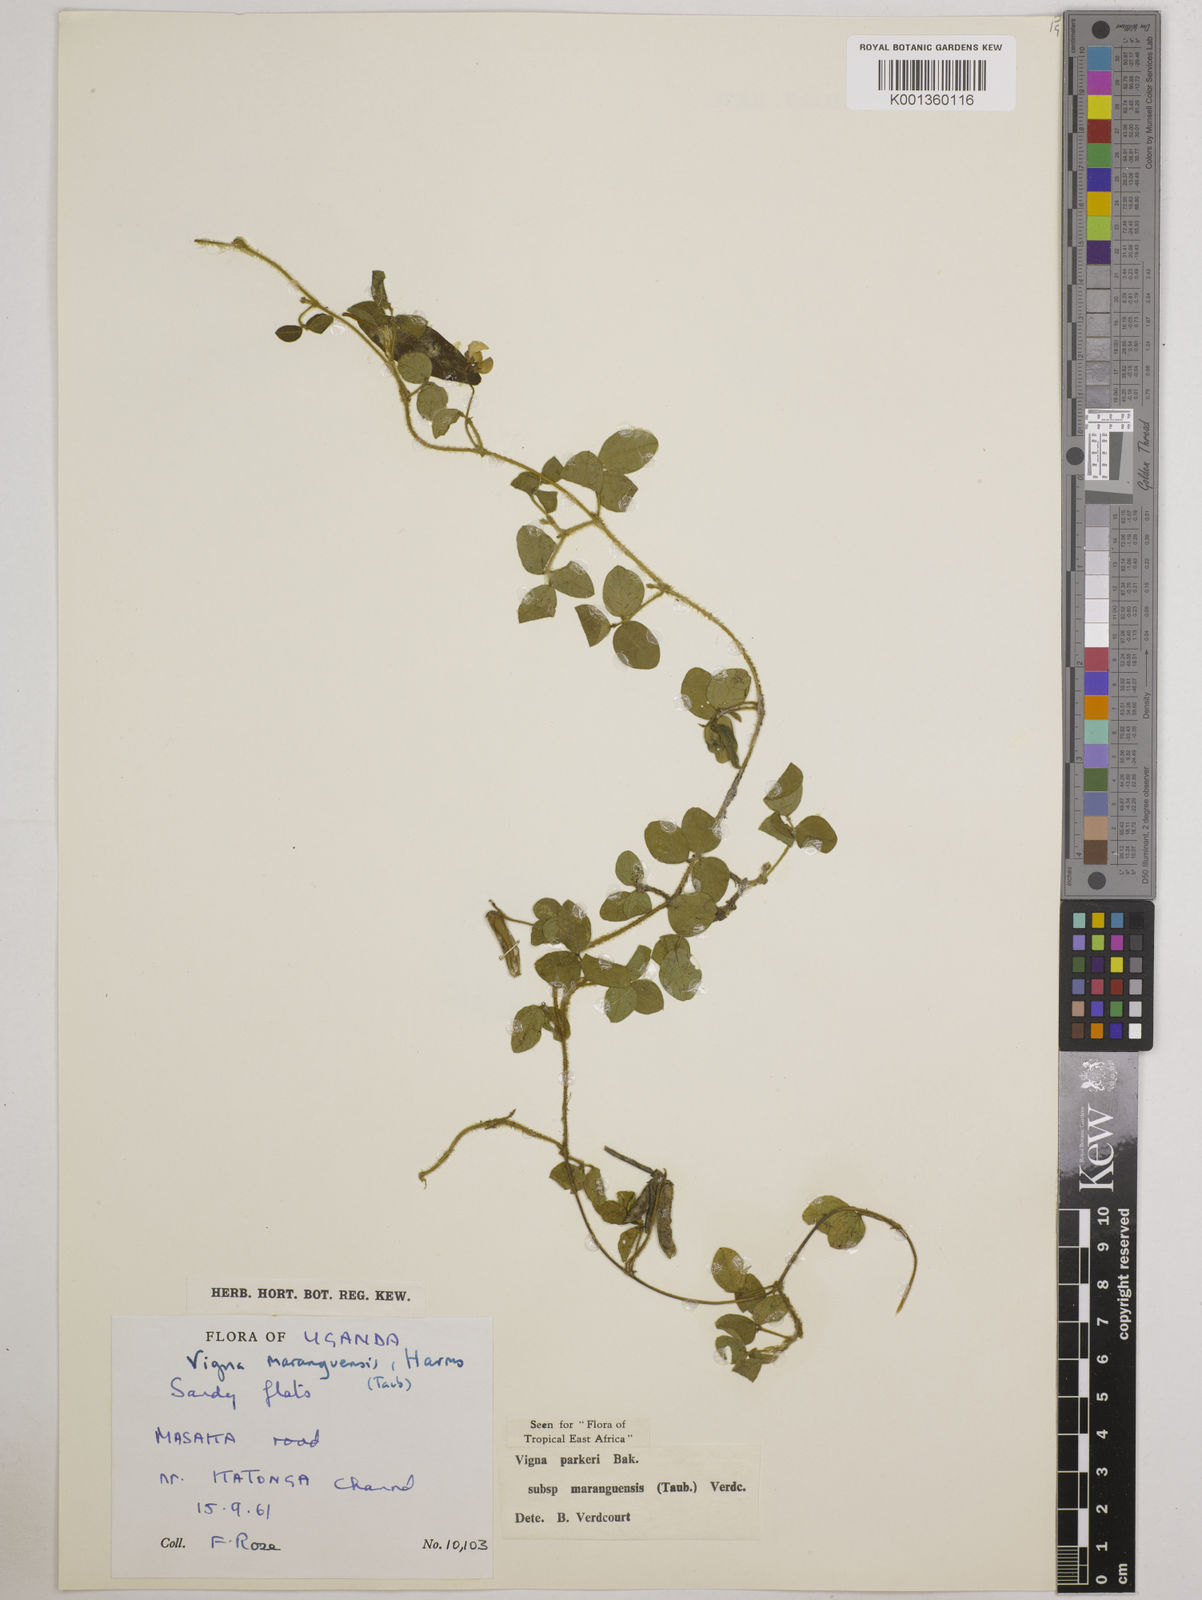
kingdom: Plantae
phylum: Tracheophyta
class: Magnoliopsida
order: Fabales
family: Fabaceae
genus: Vigna
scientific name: Vigna
